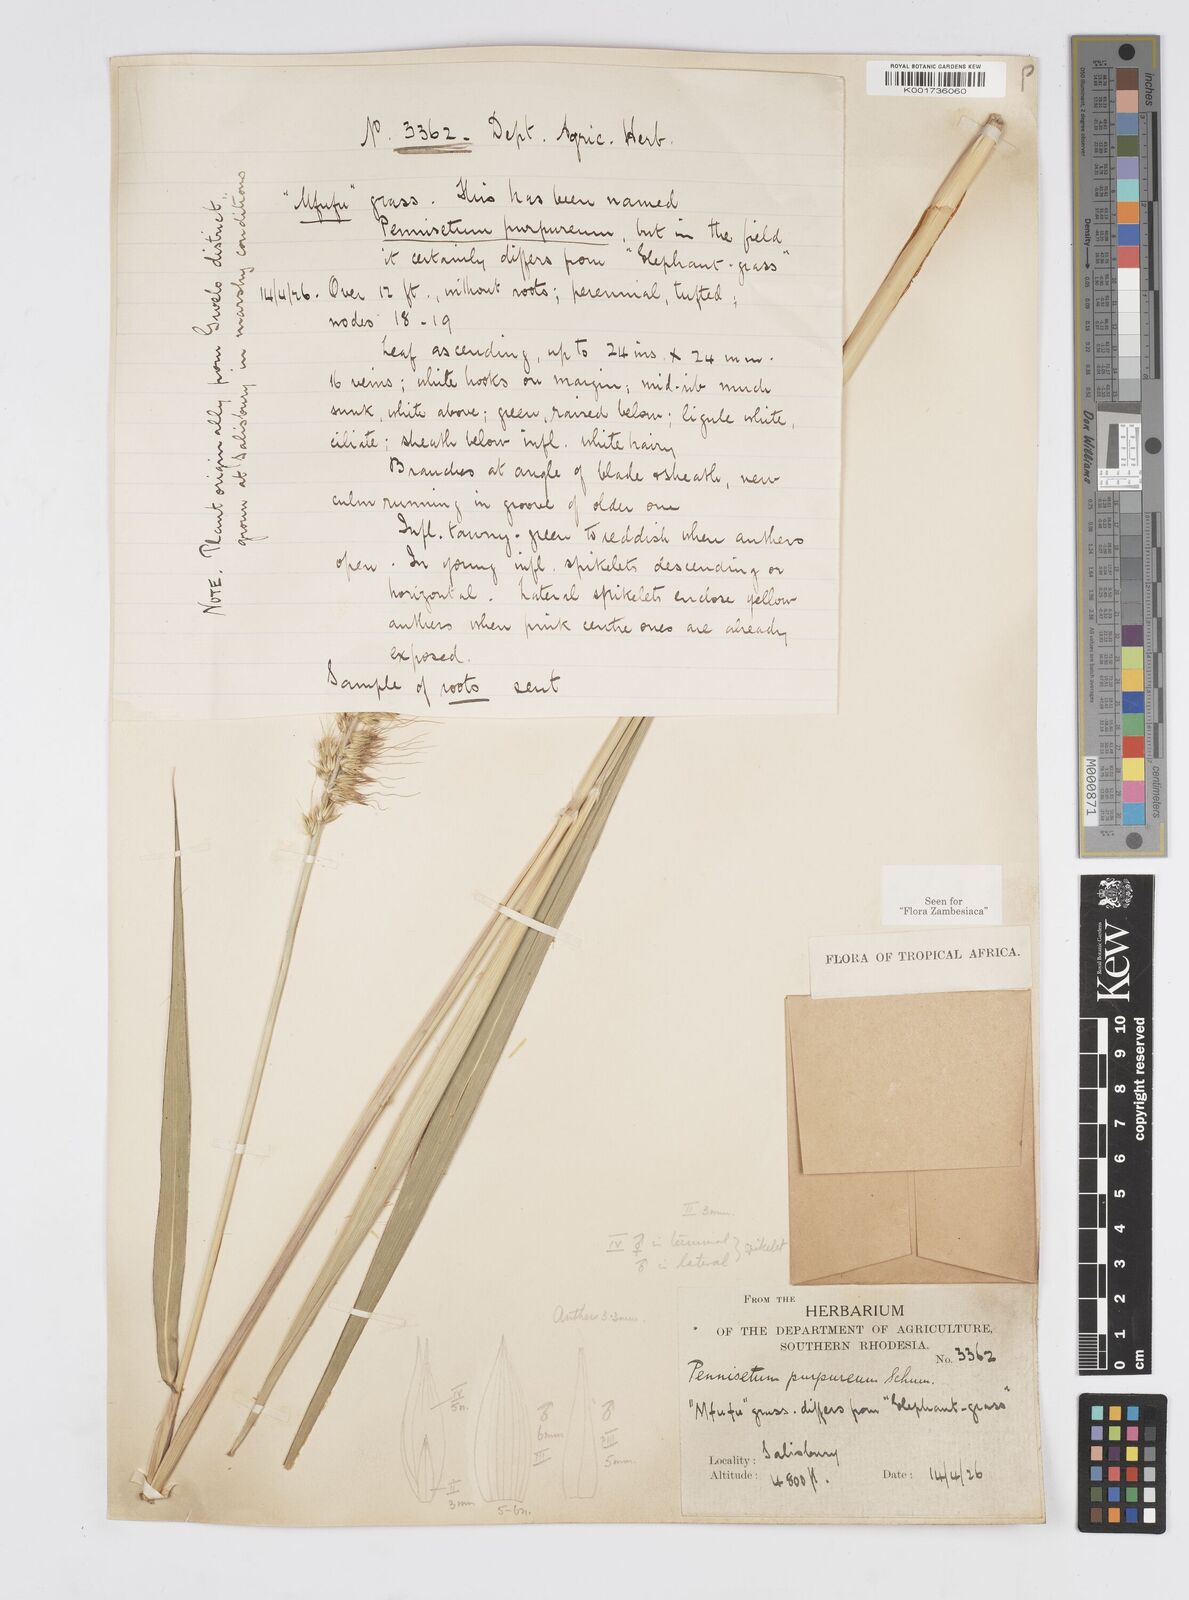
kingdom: Plantae
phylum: Tracheophyta
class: Liliopsida
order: Poales
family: Poaceae
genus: Cenchrus
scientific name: Cenchrus purpureus
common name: Elephant grass
